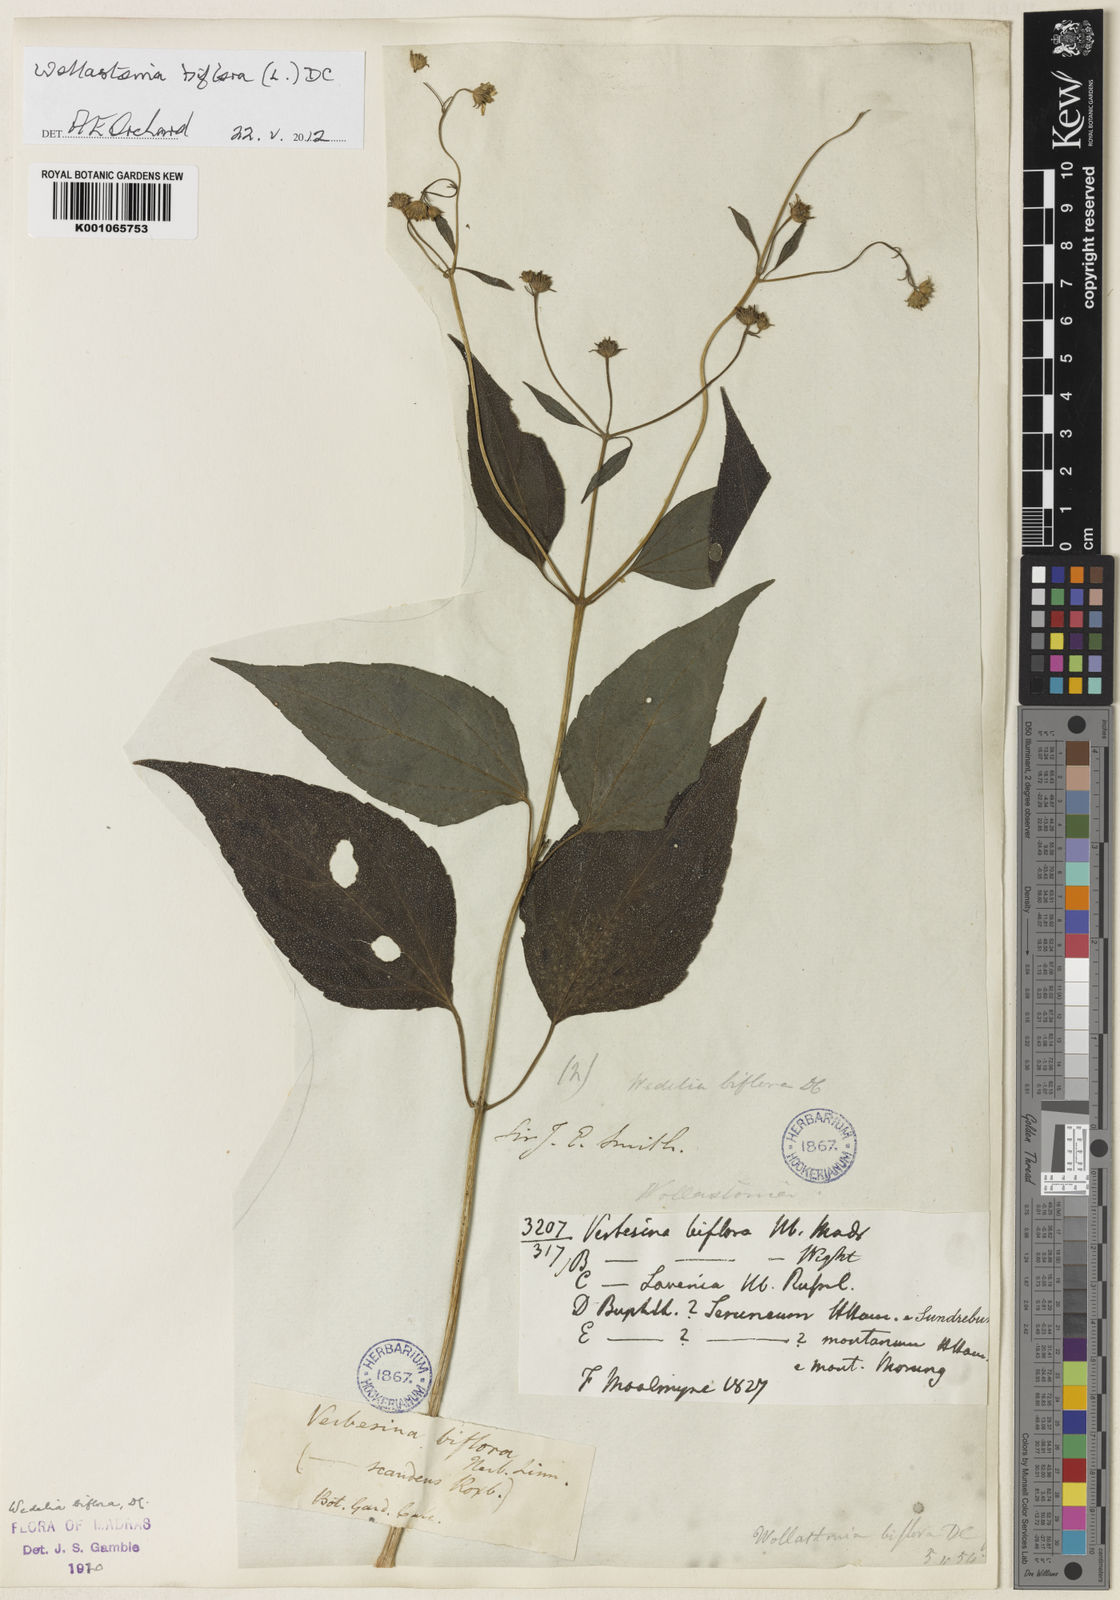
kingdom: Plantae
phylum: Tracheophyta
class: Magnoliopsida
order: Asterales
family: Asteraceae
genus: Wollastonia
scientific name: Wollastonia biflora
